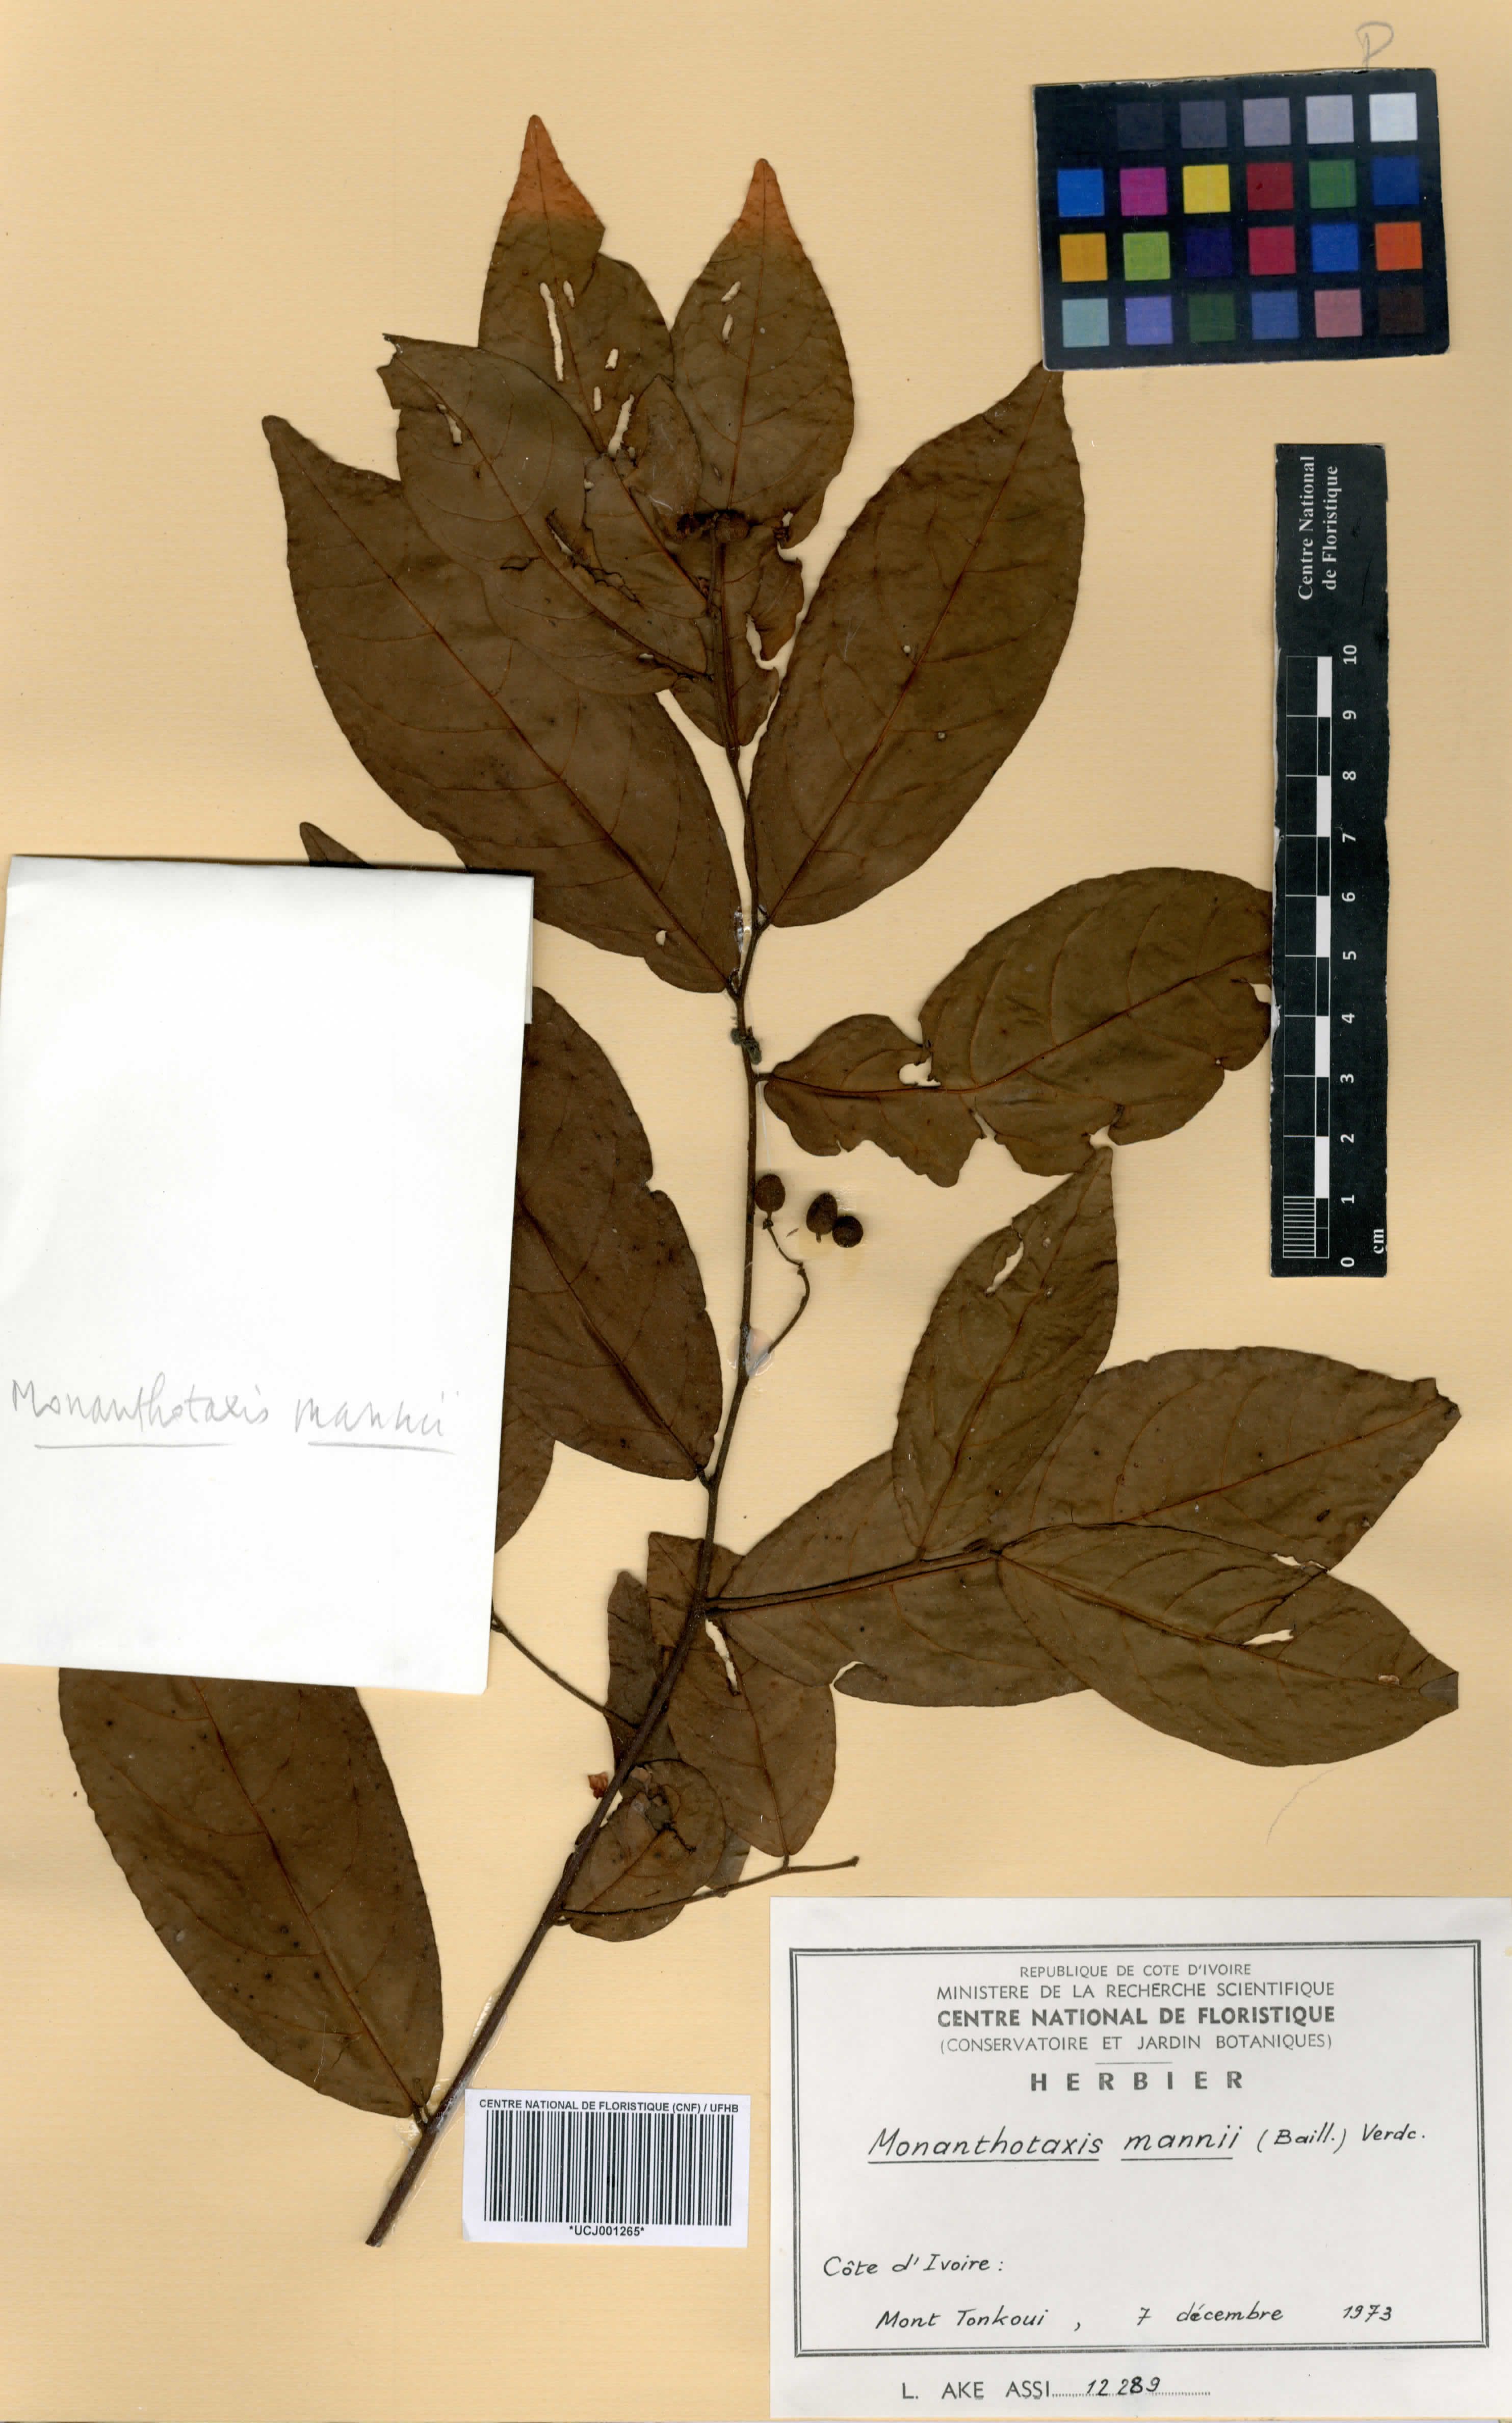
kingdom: Plantae
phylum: Tracheophyta
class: Magnoliopsida
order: Magnoliales
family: Annonaceae
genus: Monanthotaxis
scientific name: Monanthotaxis mannii
